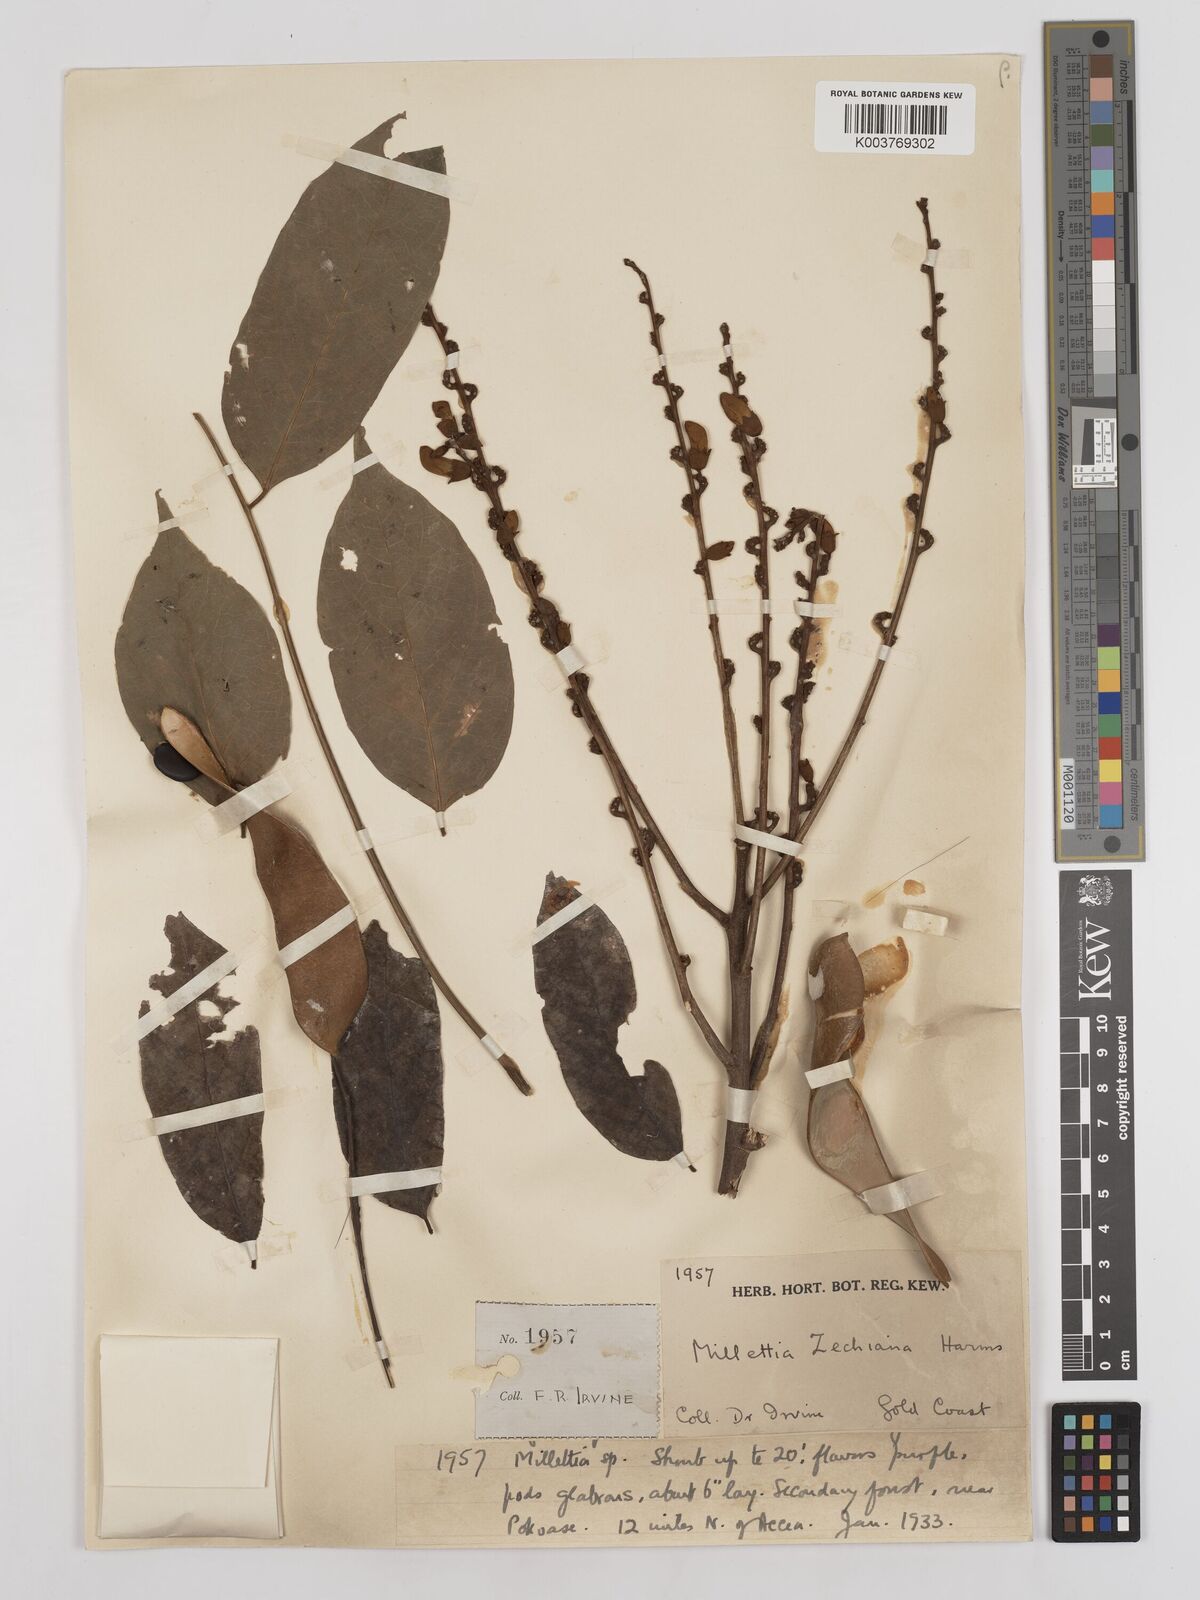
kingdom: Plantae
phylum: Tracheophyta
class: Magnoliopsida
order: Fabales
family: Fabaceae
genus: Millettia
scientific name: Millettia zechiana
